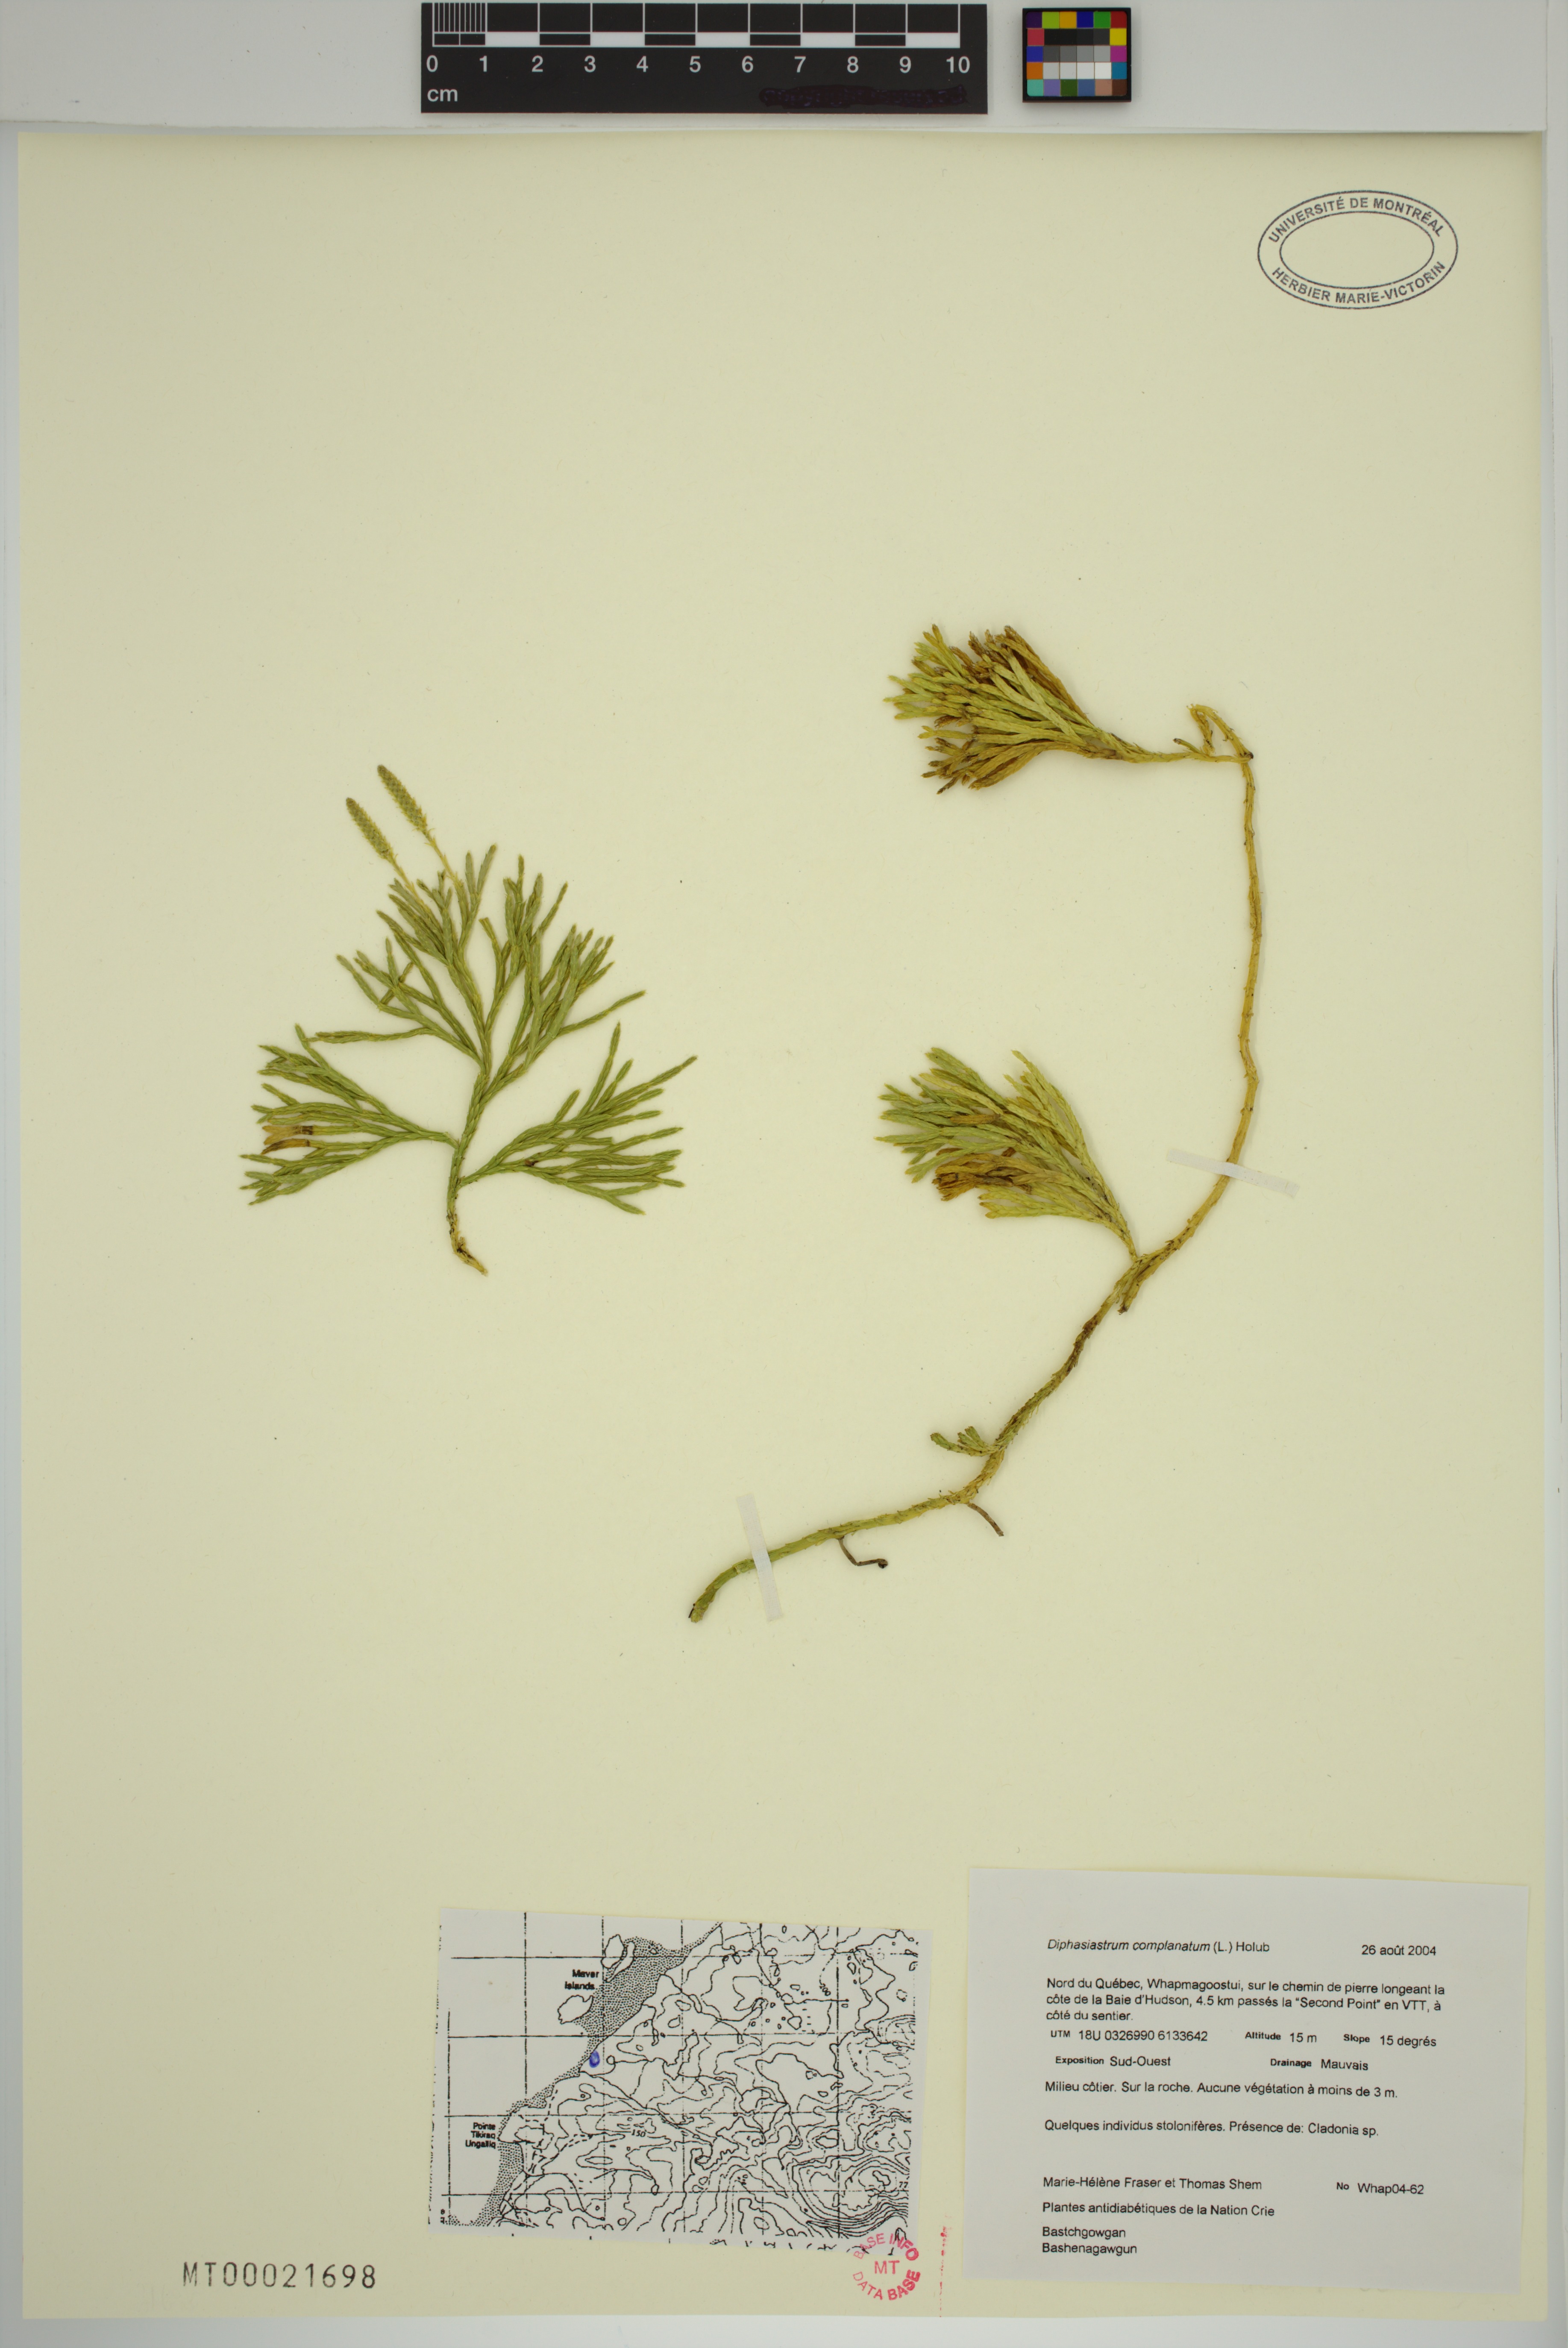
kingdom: Plantae
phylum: Tracheophyta
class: Lycopodiopsida
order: Lycopodiales
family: Lycopodiaceae
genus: Diphasiastrum
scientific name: Diphasiastrum complanatum
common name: Northern running-pine
